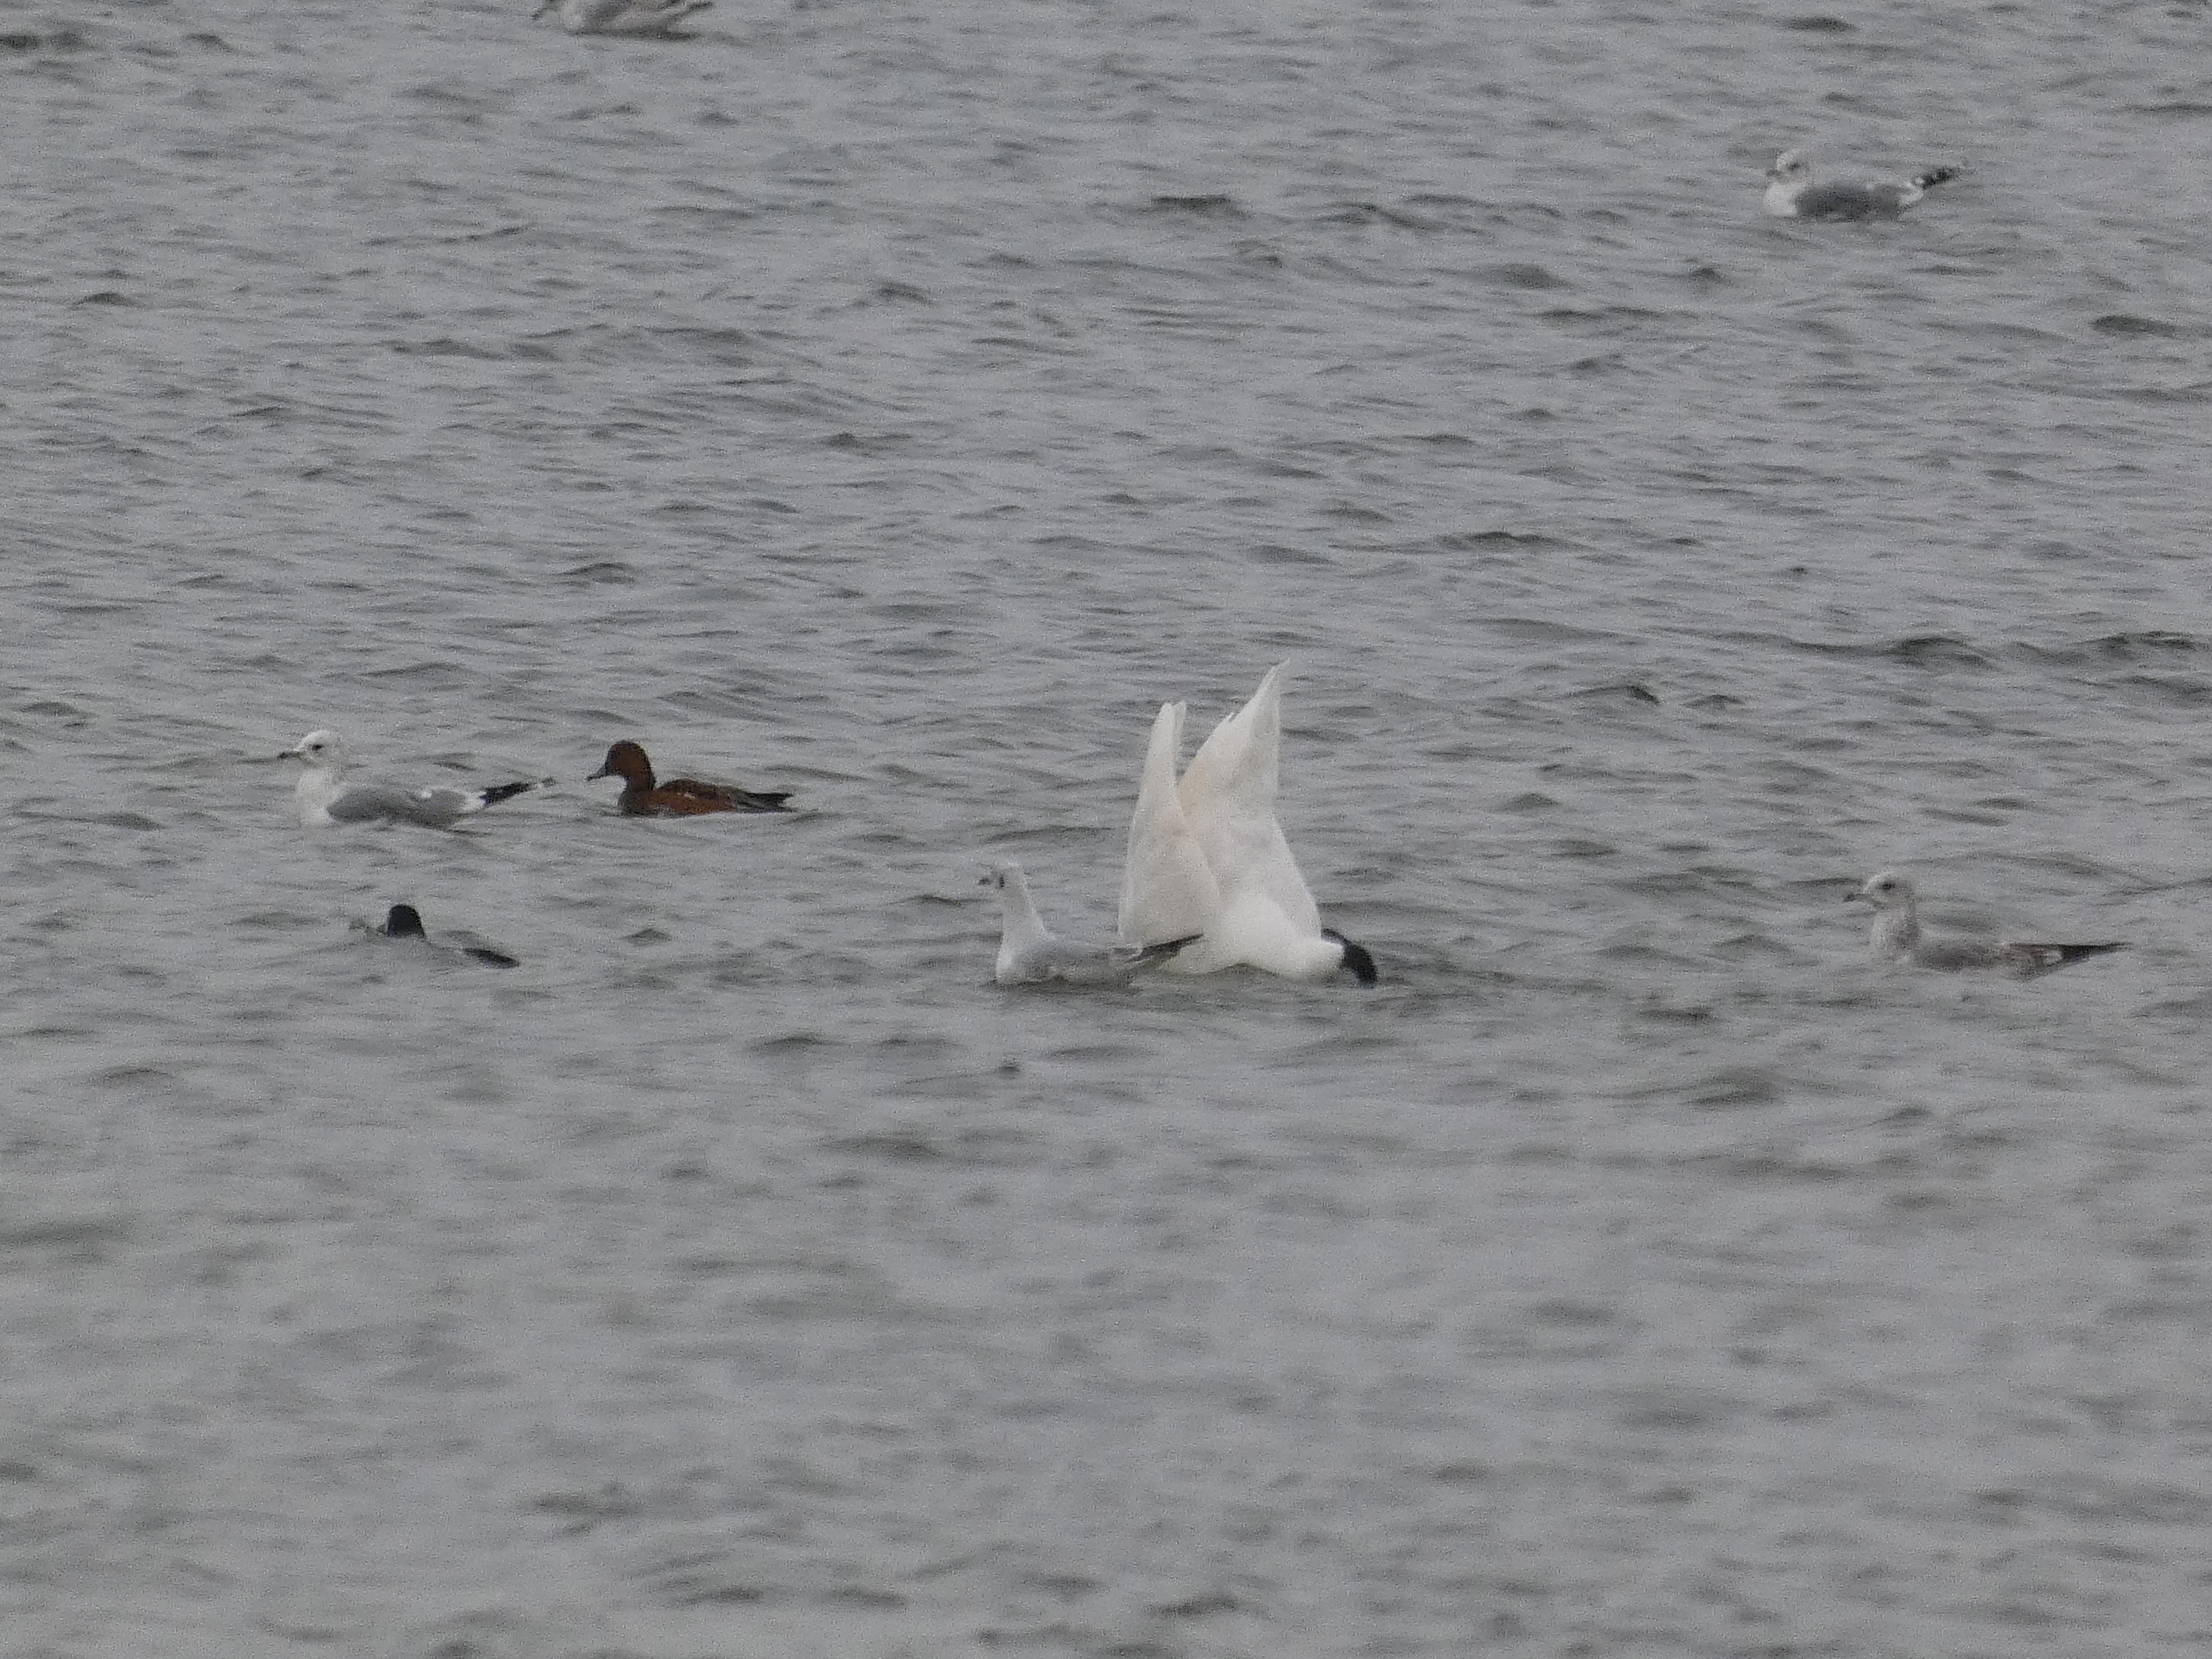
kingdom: Animalia
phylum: Chordata
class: Aves
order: Charadriiformes
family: Laridae
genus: Larus
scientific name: Larus canus
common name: Stormmåge
